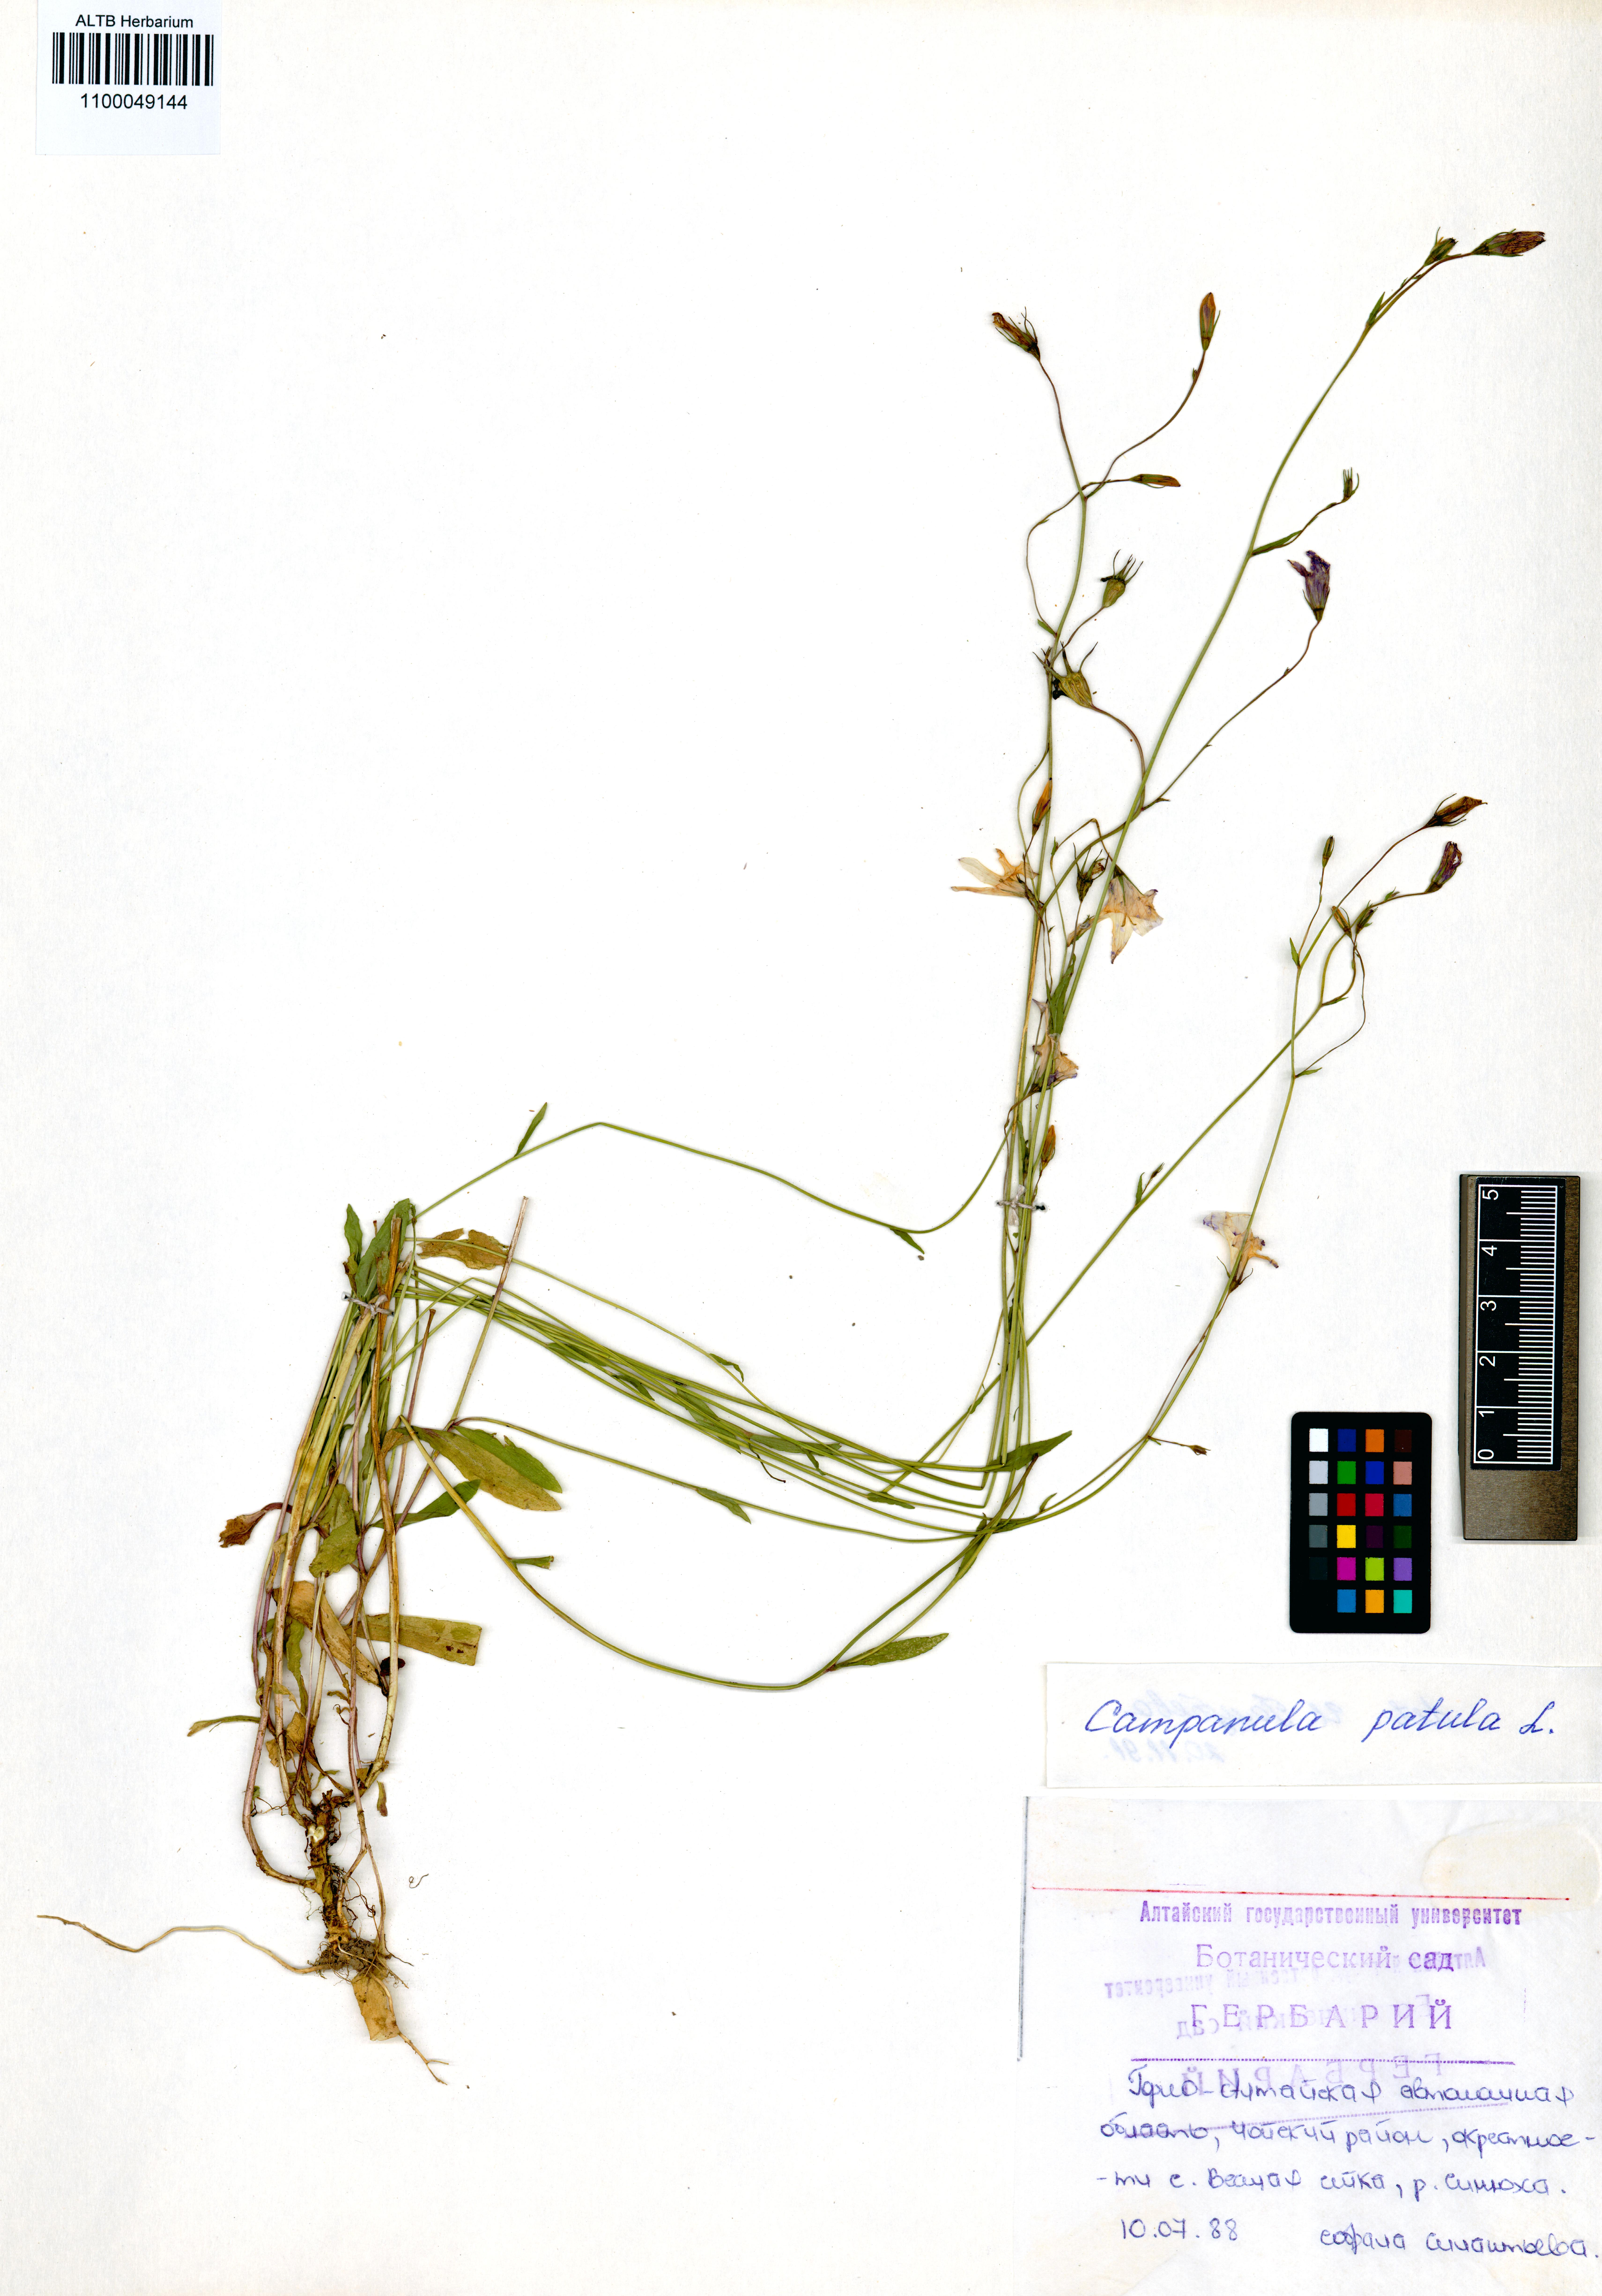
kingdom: Plantae
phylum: Tracheophyta
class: Magnoliopsida
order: Asterales
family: Campanulaceae
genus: Campanula
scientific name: Campanula patula
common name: Spreading bellflower
